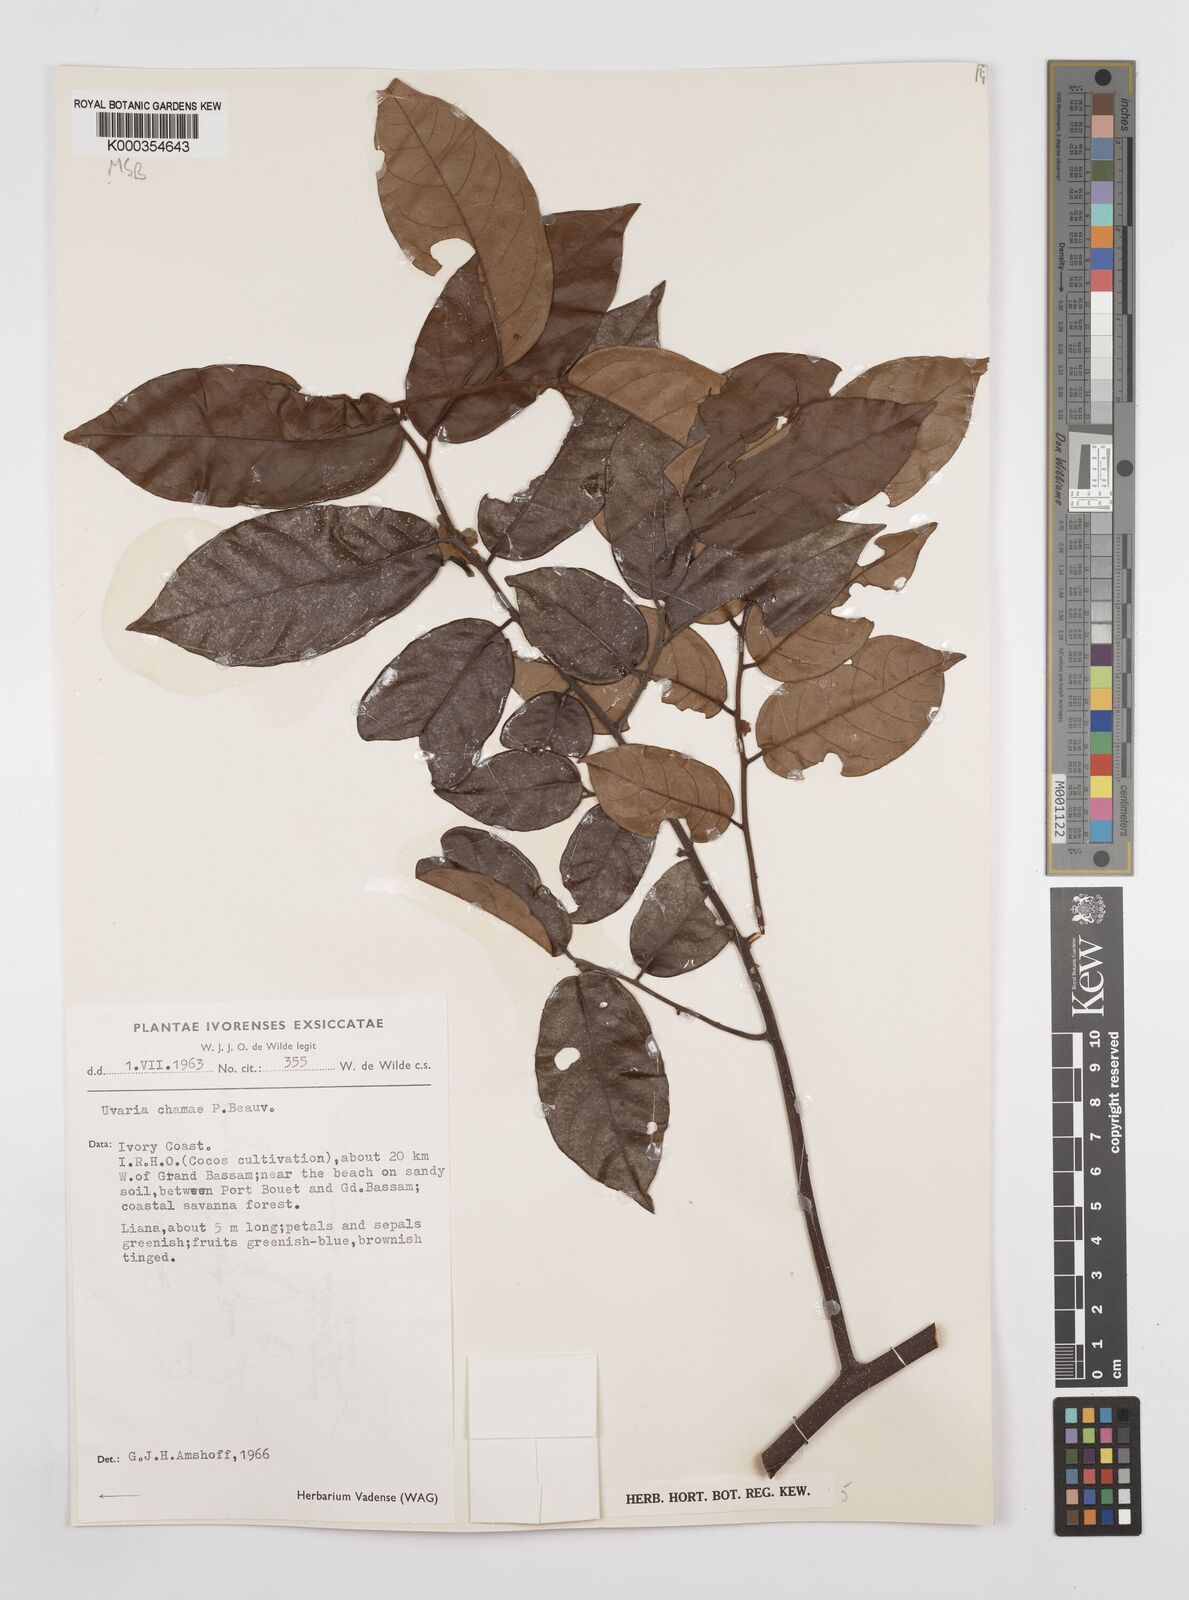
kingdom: Plantae
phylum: Tracheophyta
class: Magnoliopsida
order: Magnoliales
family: Annonaceae
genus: Uvaria
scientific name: Uvaria chamae
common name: Finger-root
